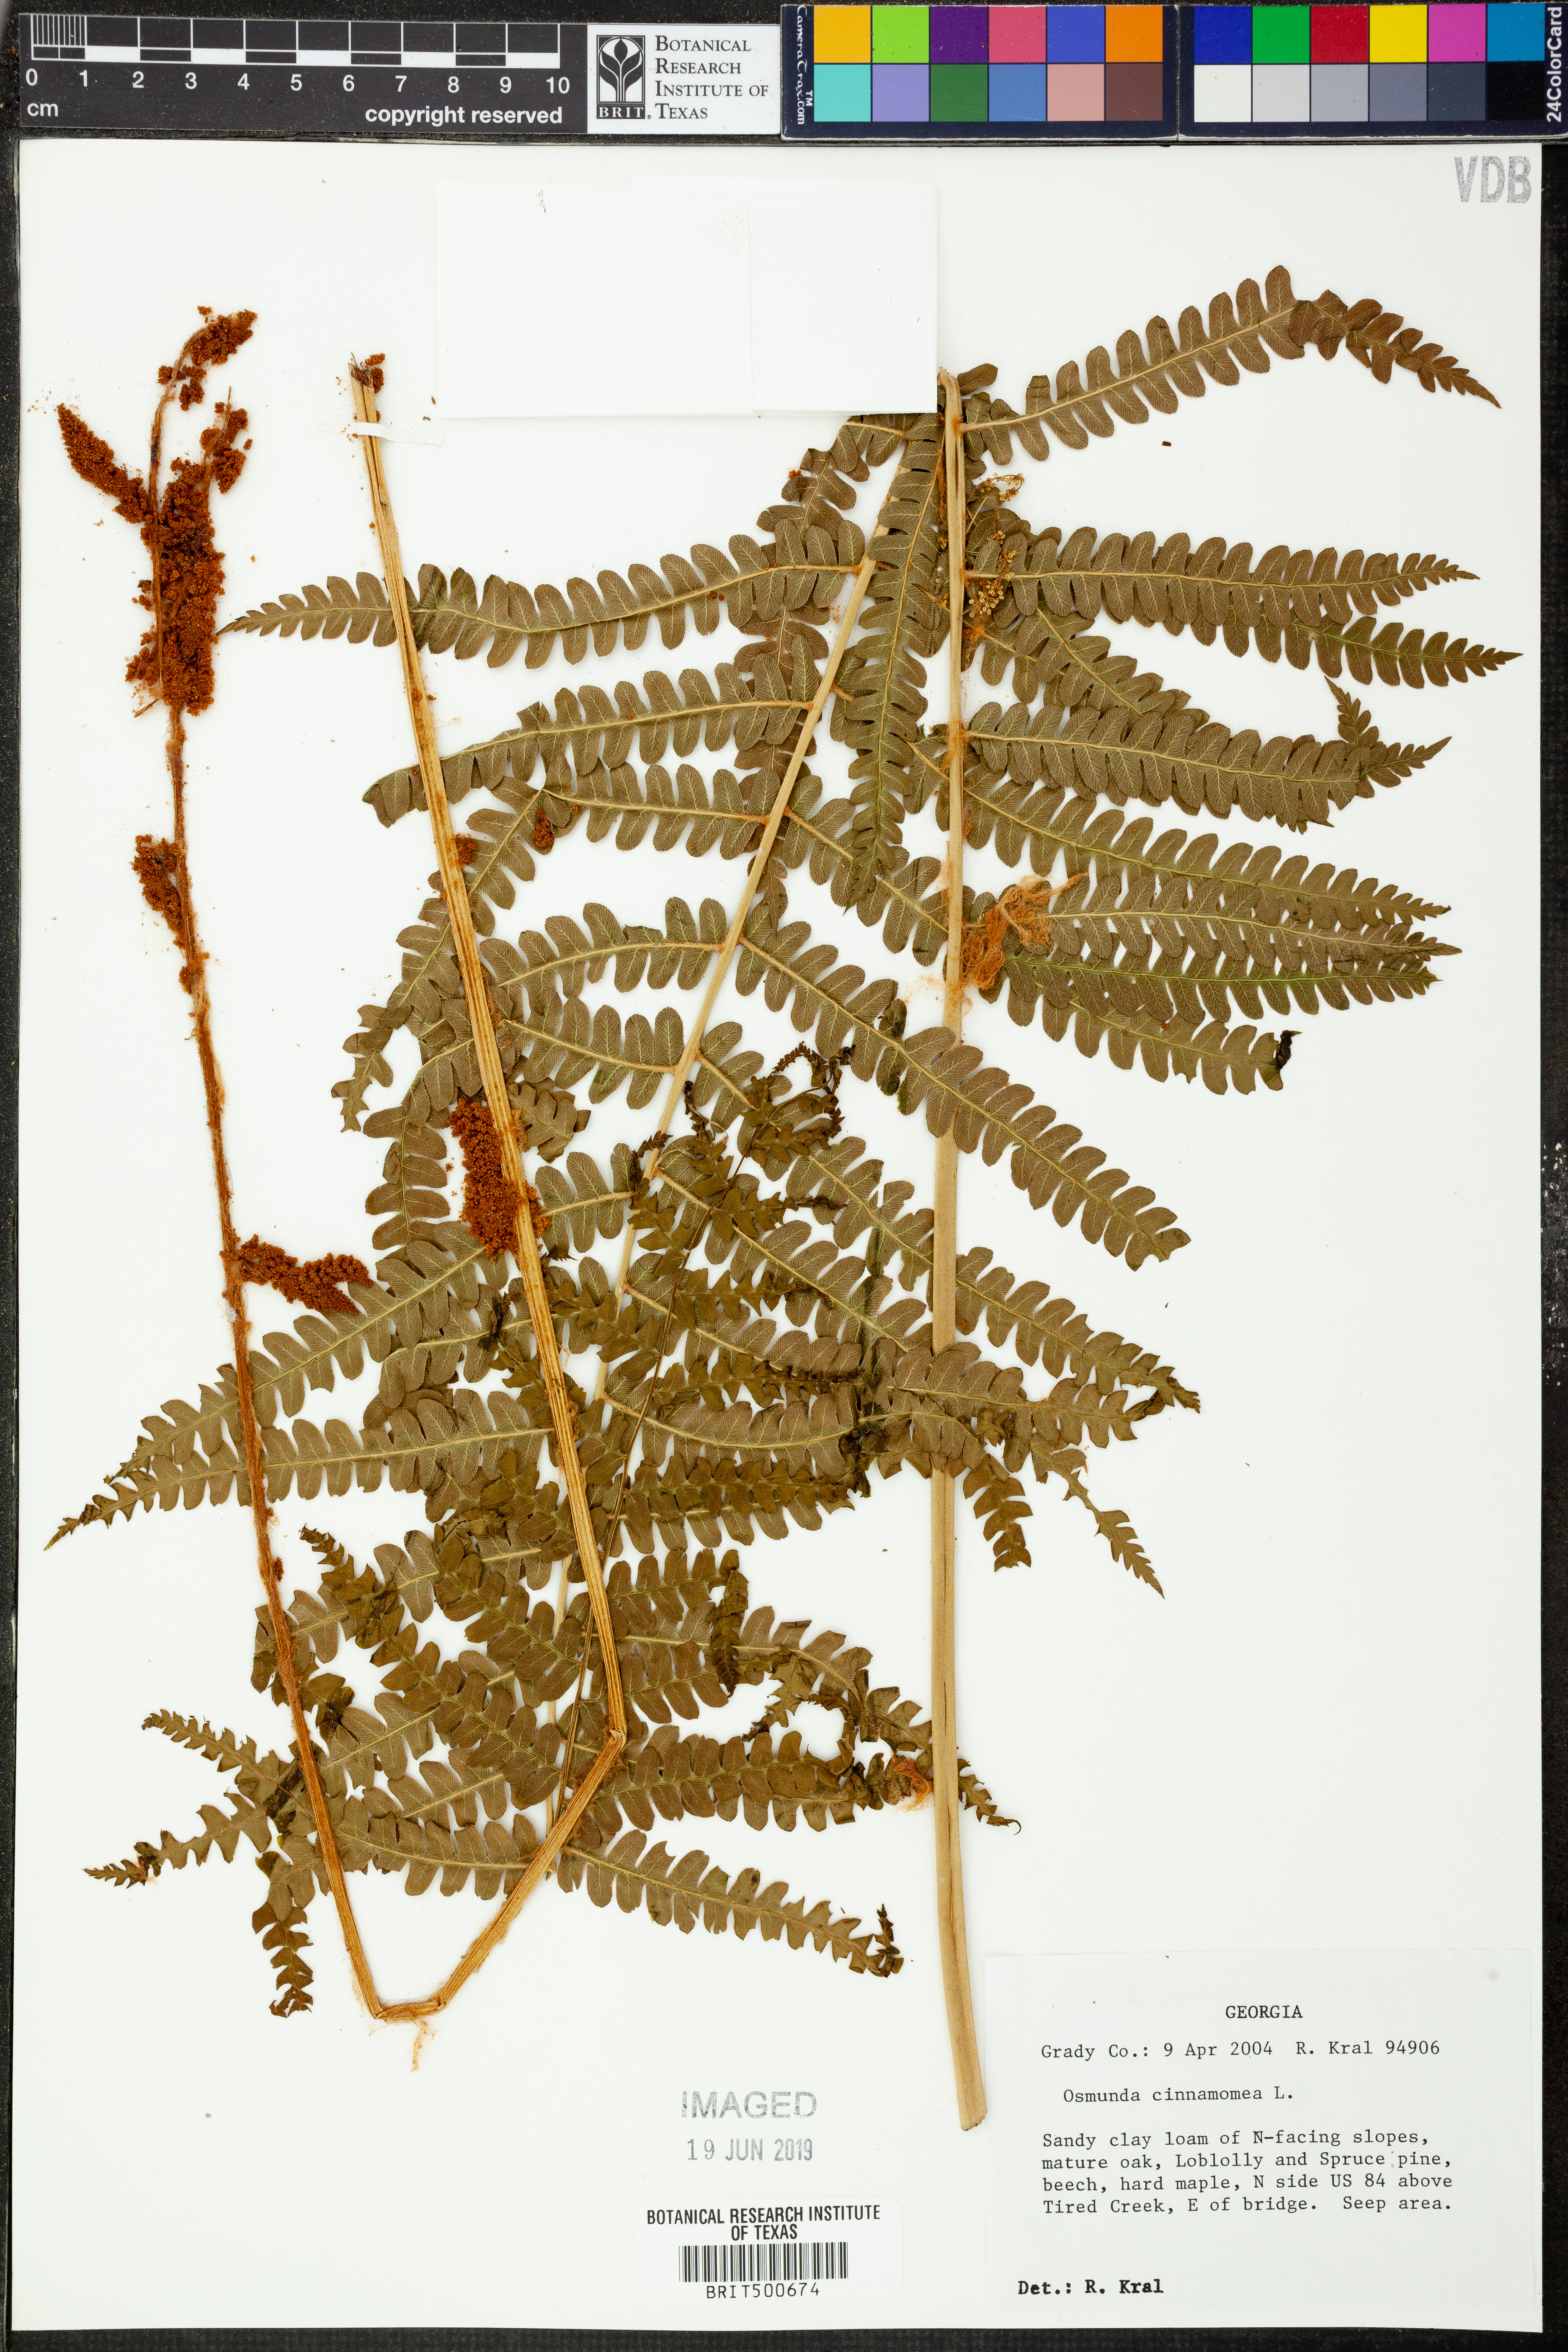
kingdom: Plantae
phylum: Tracheophyta
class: Polypodiopsida
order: Osmundales
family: Osmundaceae
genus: Osmundastrum
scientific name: Osmundastrum cinnamomeum
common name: Cinnamon fern
